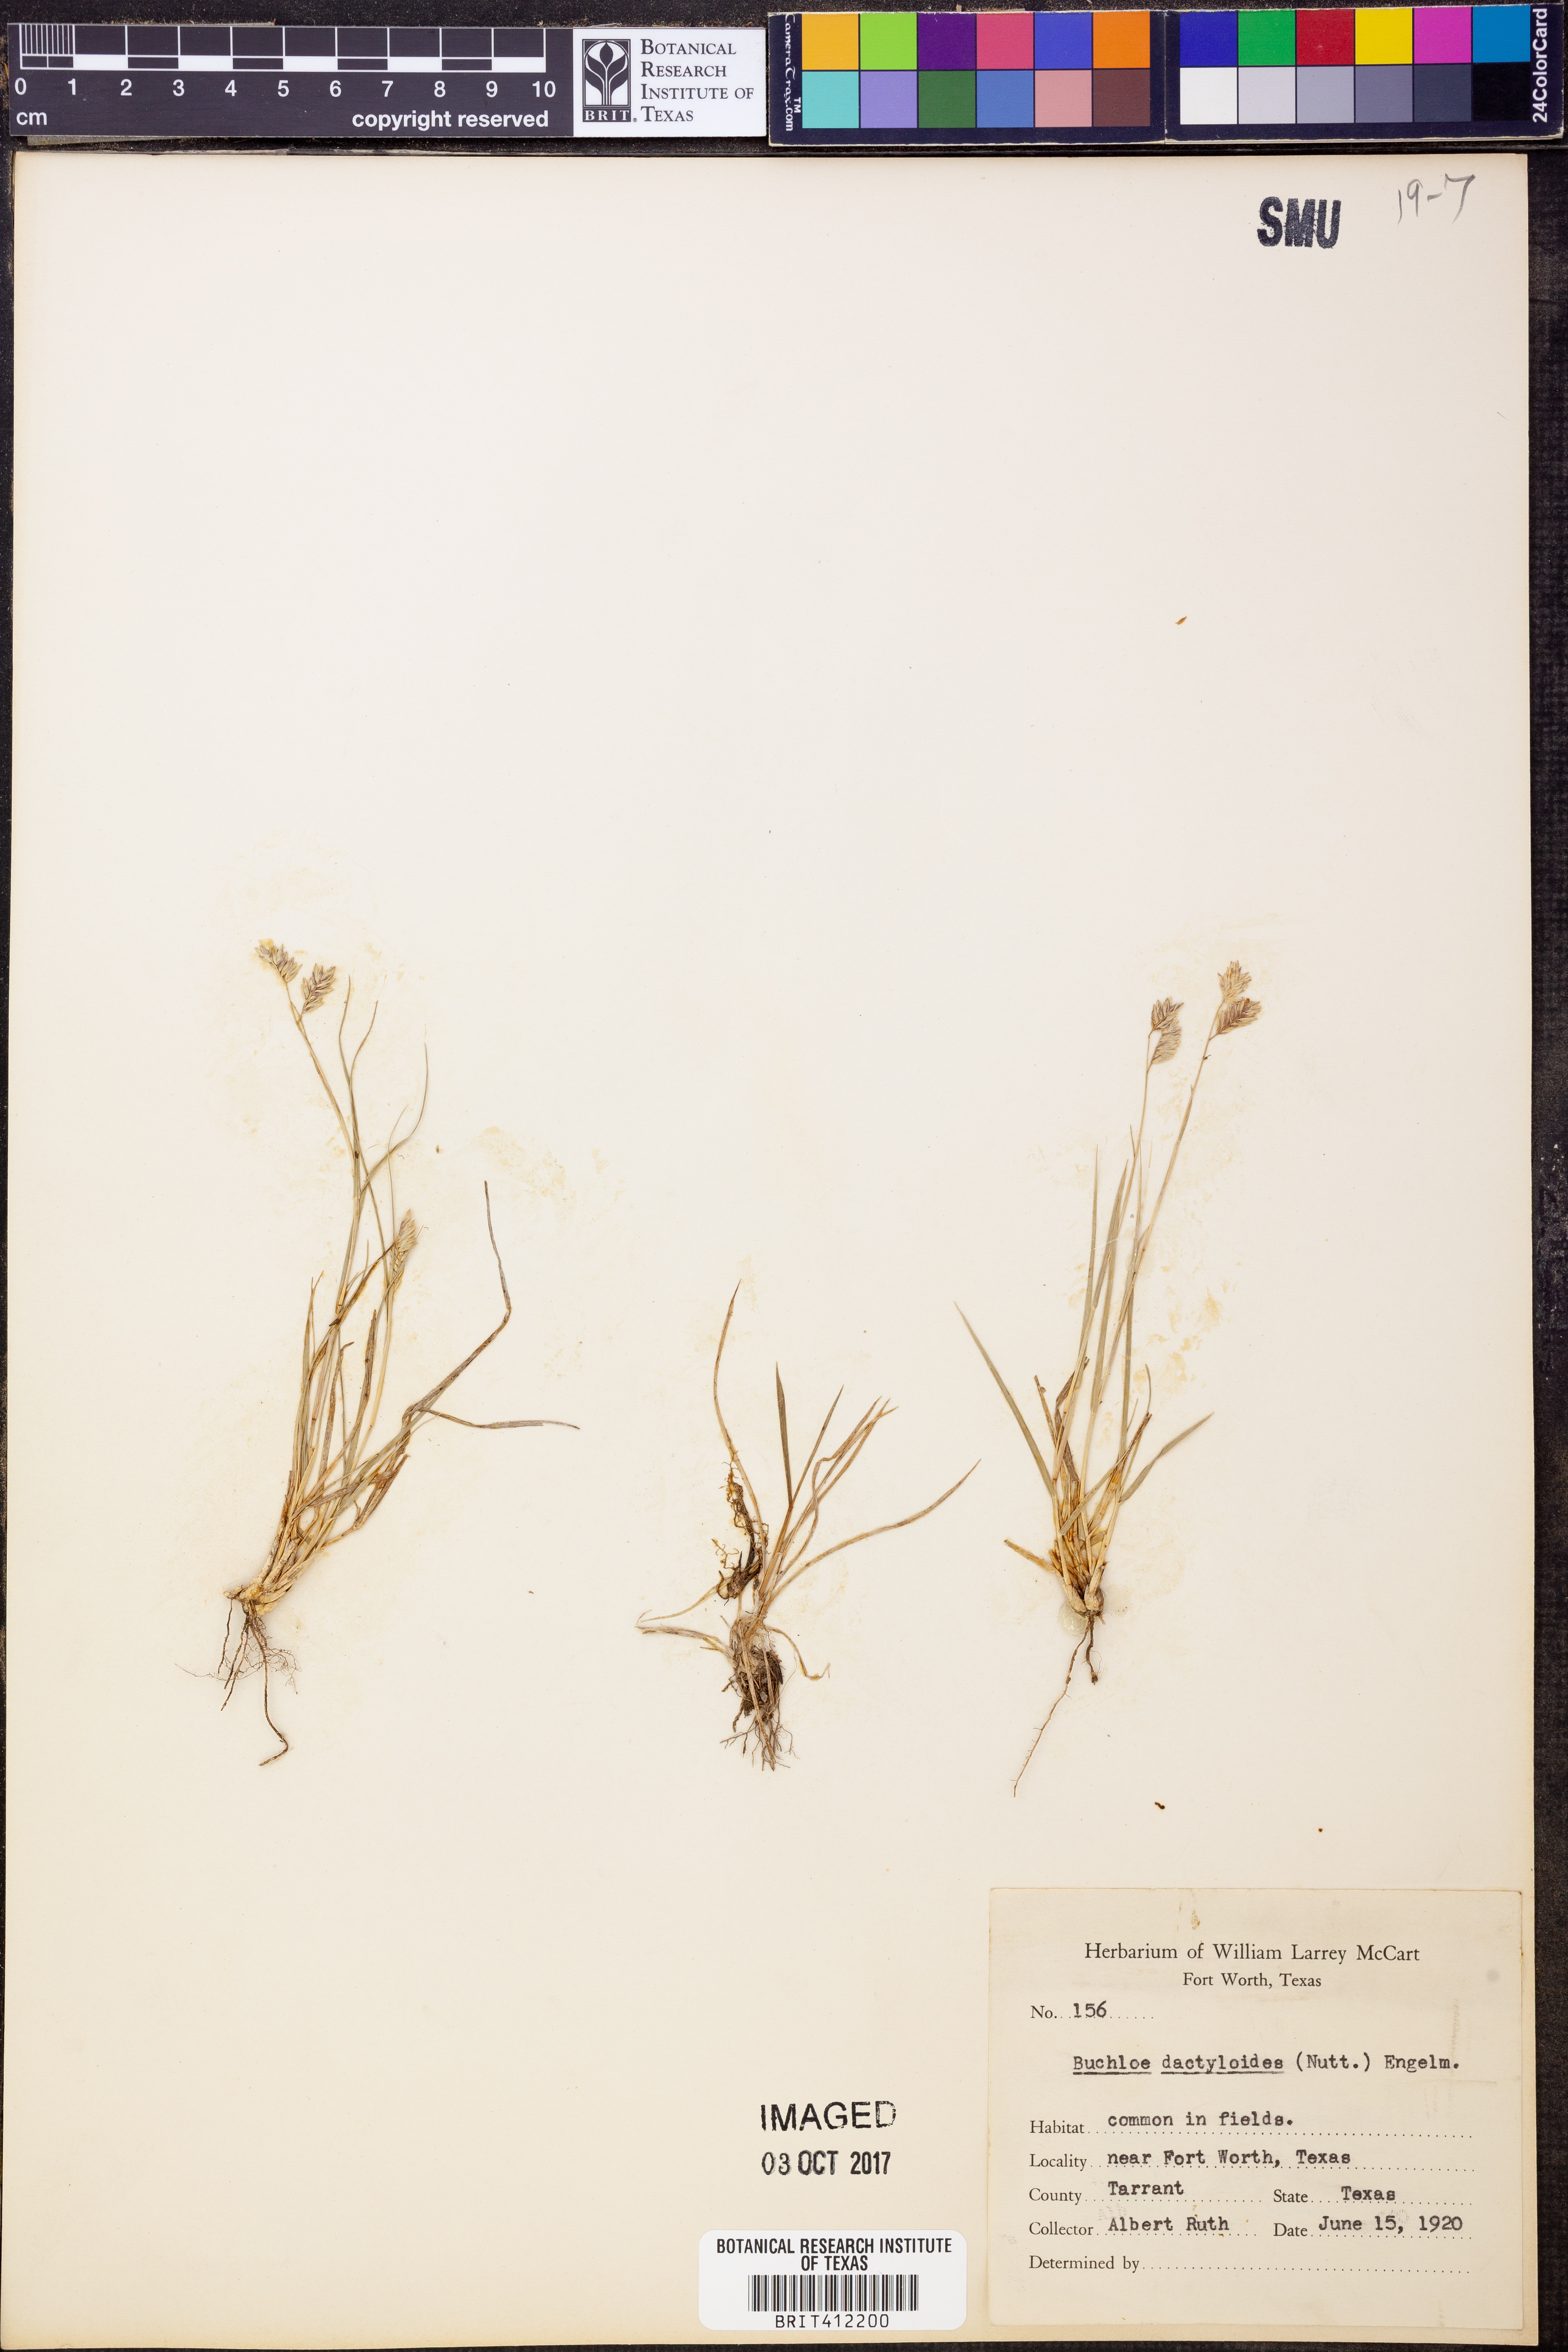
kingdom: Plantae
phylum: Tracheophyta
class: Liliopsida
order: Poales
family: Poaceae
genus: Bouteloua
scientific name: Bouteloua dactyloides
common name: Buffalo grass
